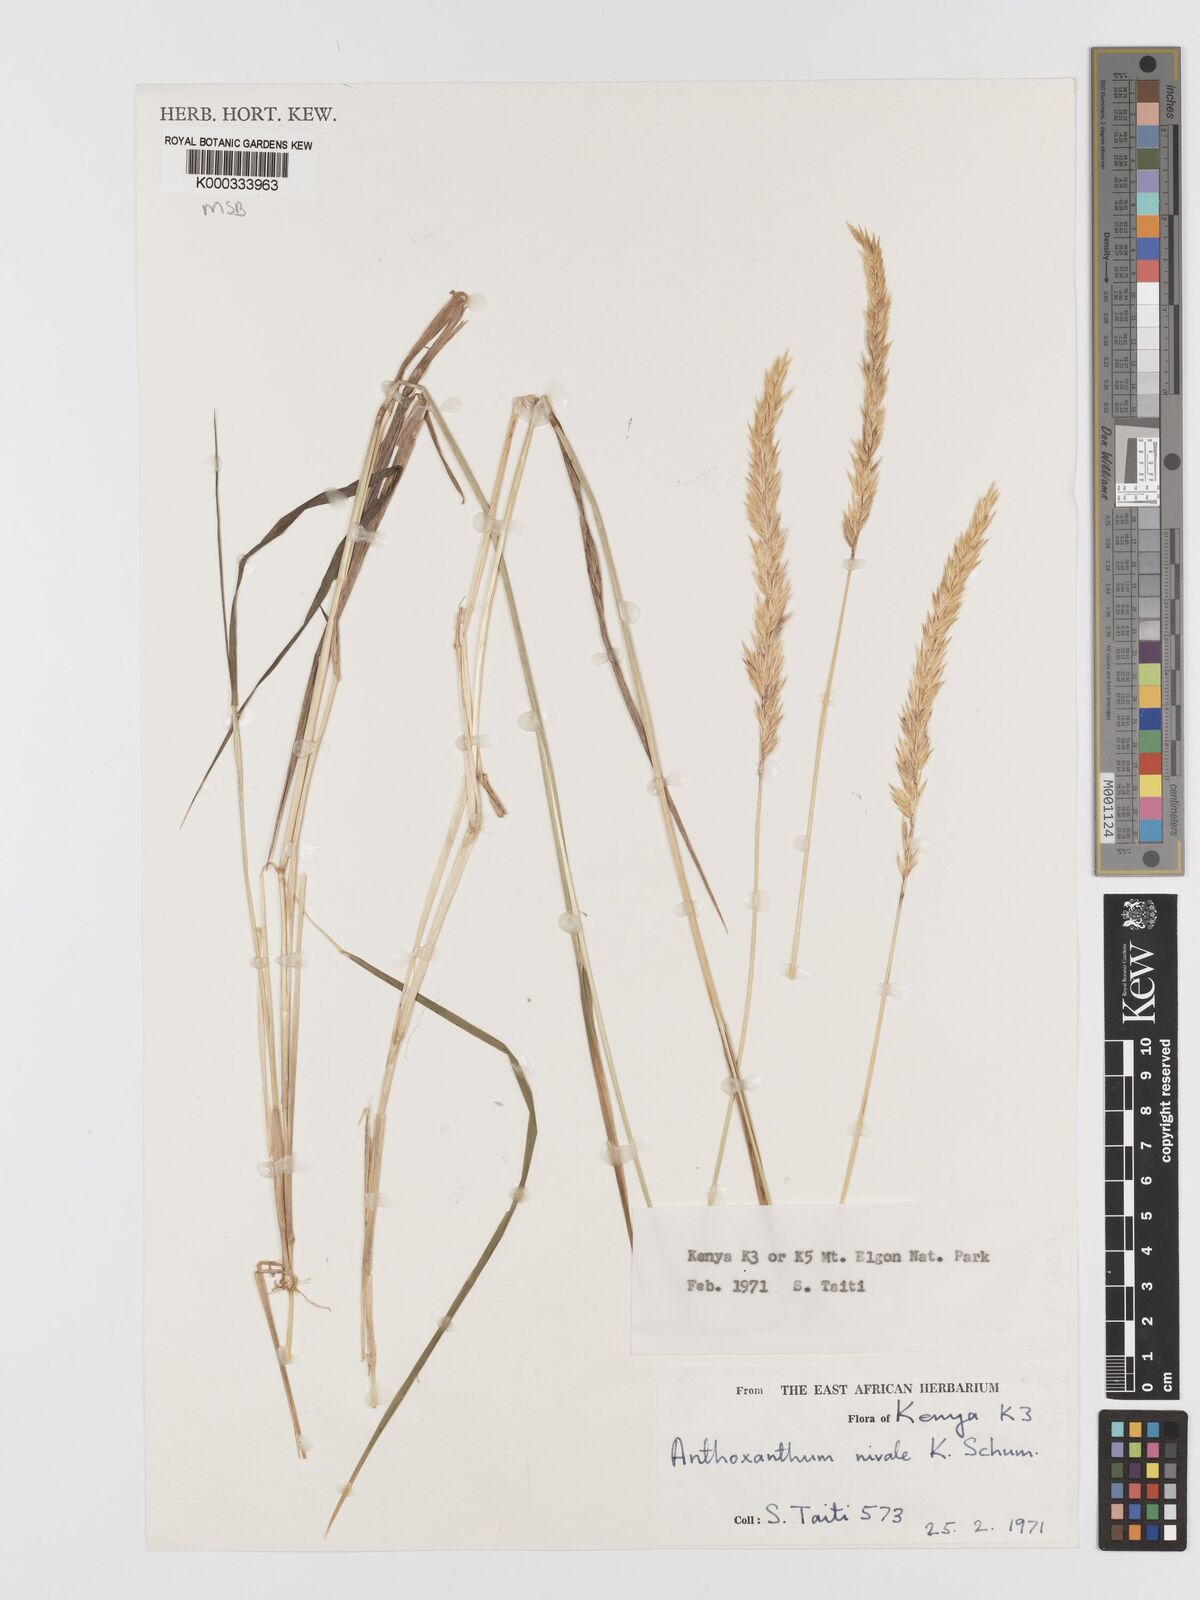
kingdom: Plantae
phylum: Tracheophyta
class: Liliopsida
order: Poales
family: Poaceae
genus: Anthoxanthum
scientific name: Anthoxanthum
